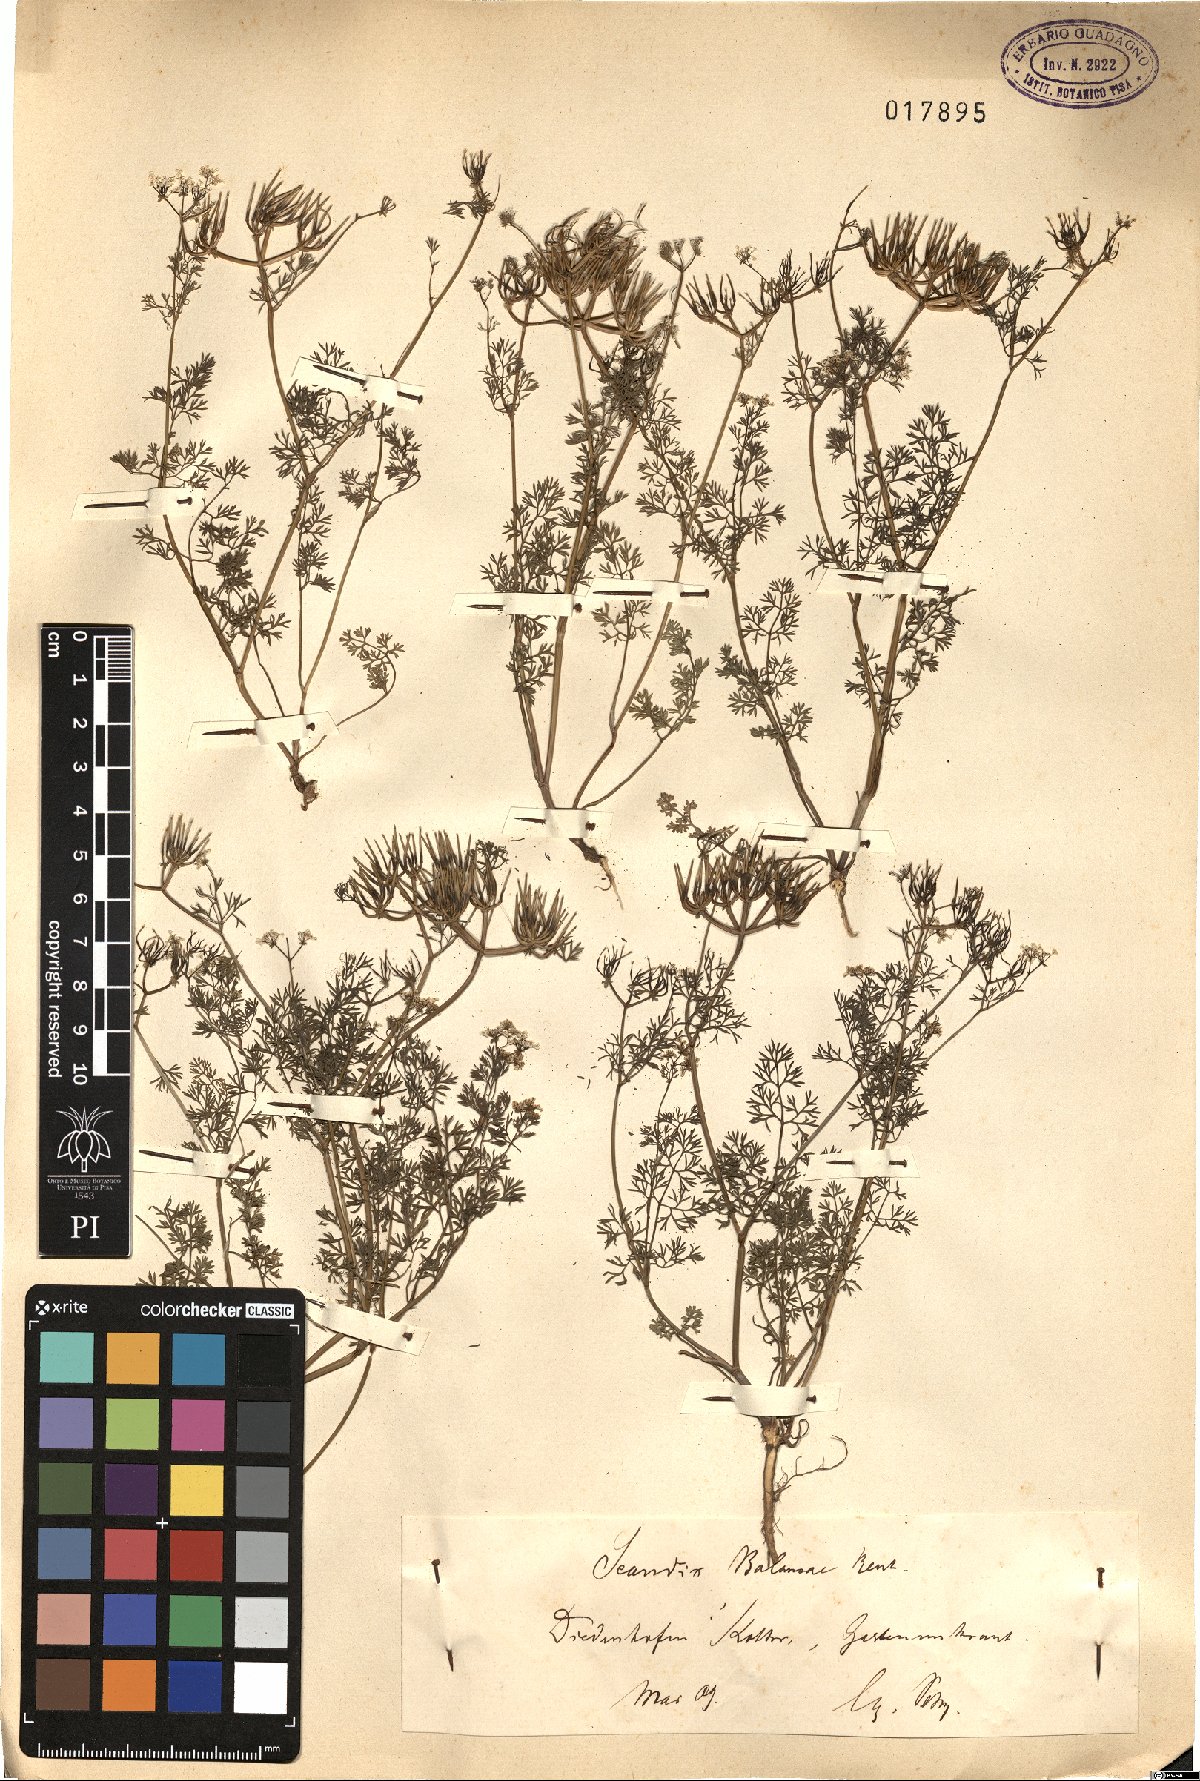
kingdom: Plantae
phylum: Tracheophyta
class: Magnoliopsida
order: Apiales
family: Apiaceae
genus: Scandix
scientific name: Scandix balansae
